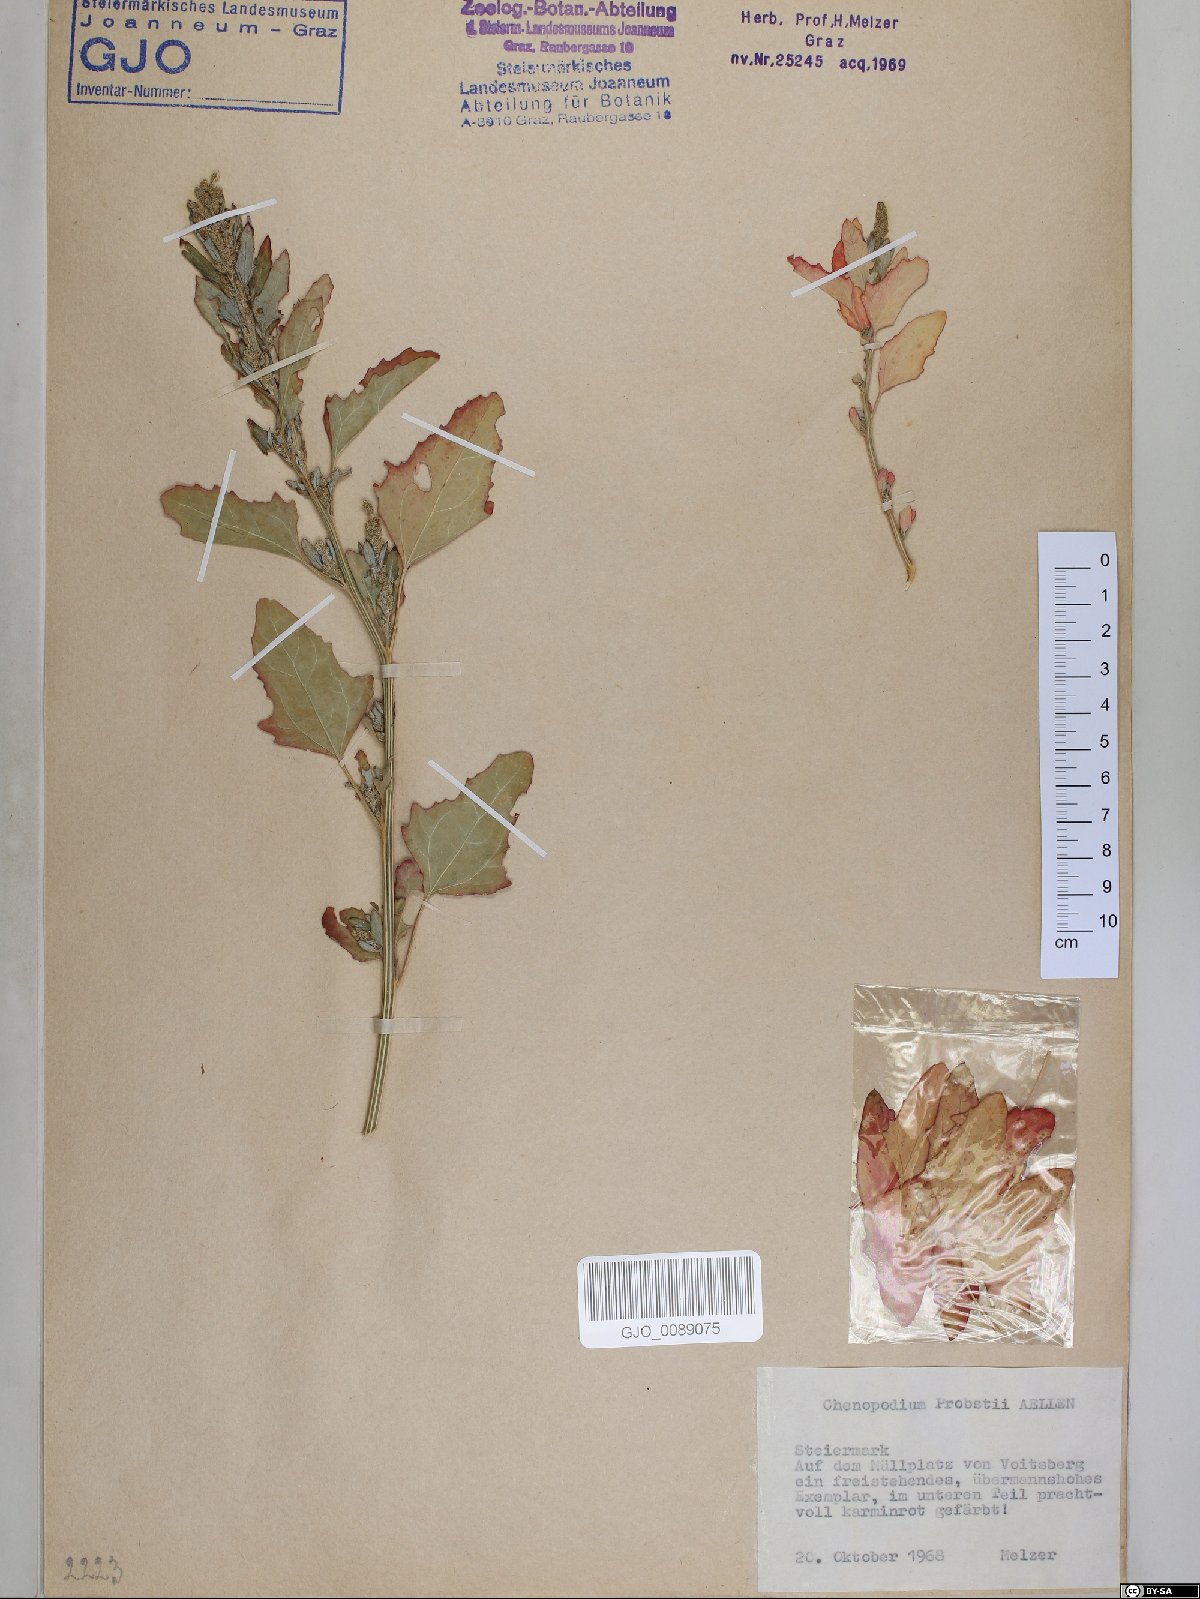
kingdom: Plantae
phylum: Tracheophyta
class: Magnoliopsida
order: Caryophyllales
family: Amaranthaceae
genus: Chenopodium
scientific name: Chenopodium probstii
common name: Probst's goosefoot
